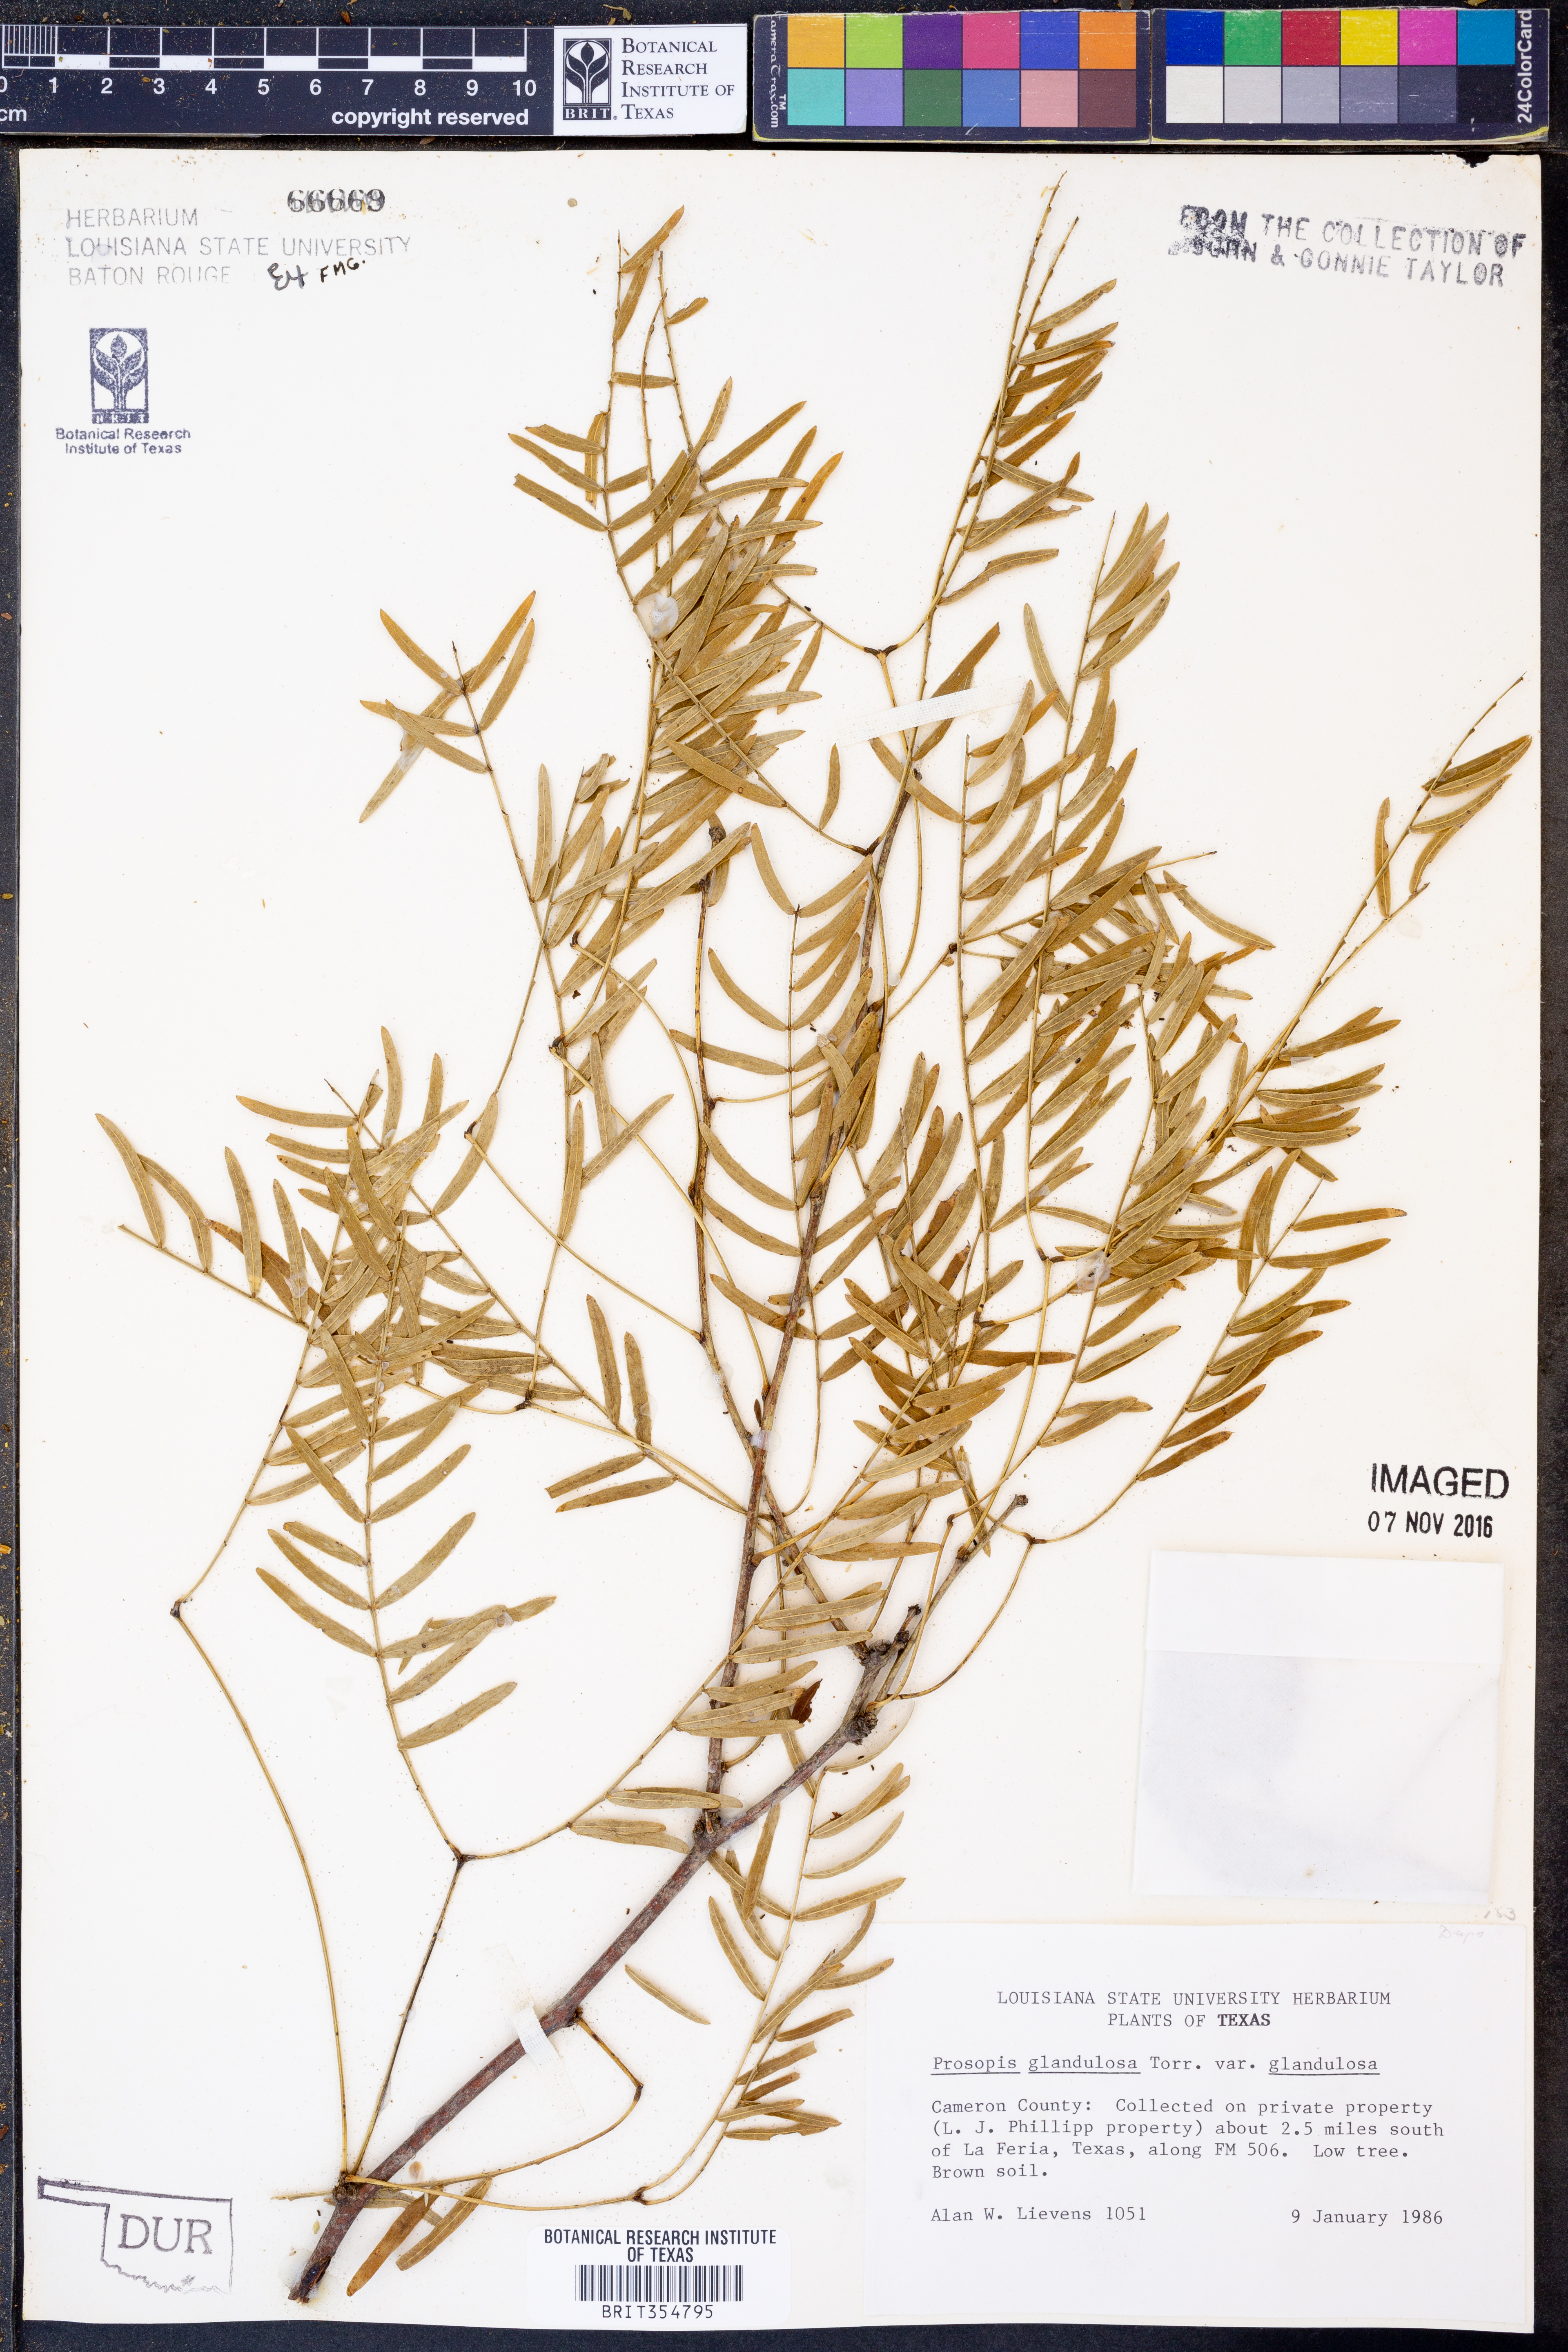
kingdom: Plantae
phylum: Tracheophyta
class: Magnoliopsida
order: Fabales
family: Fabaceae
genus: Prosopis
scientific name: Prosopis glandulosa
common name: Honey mesquite
